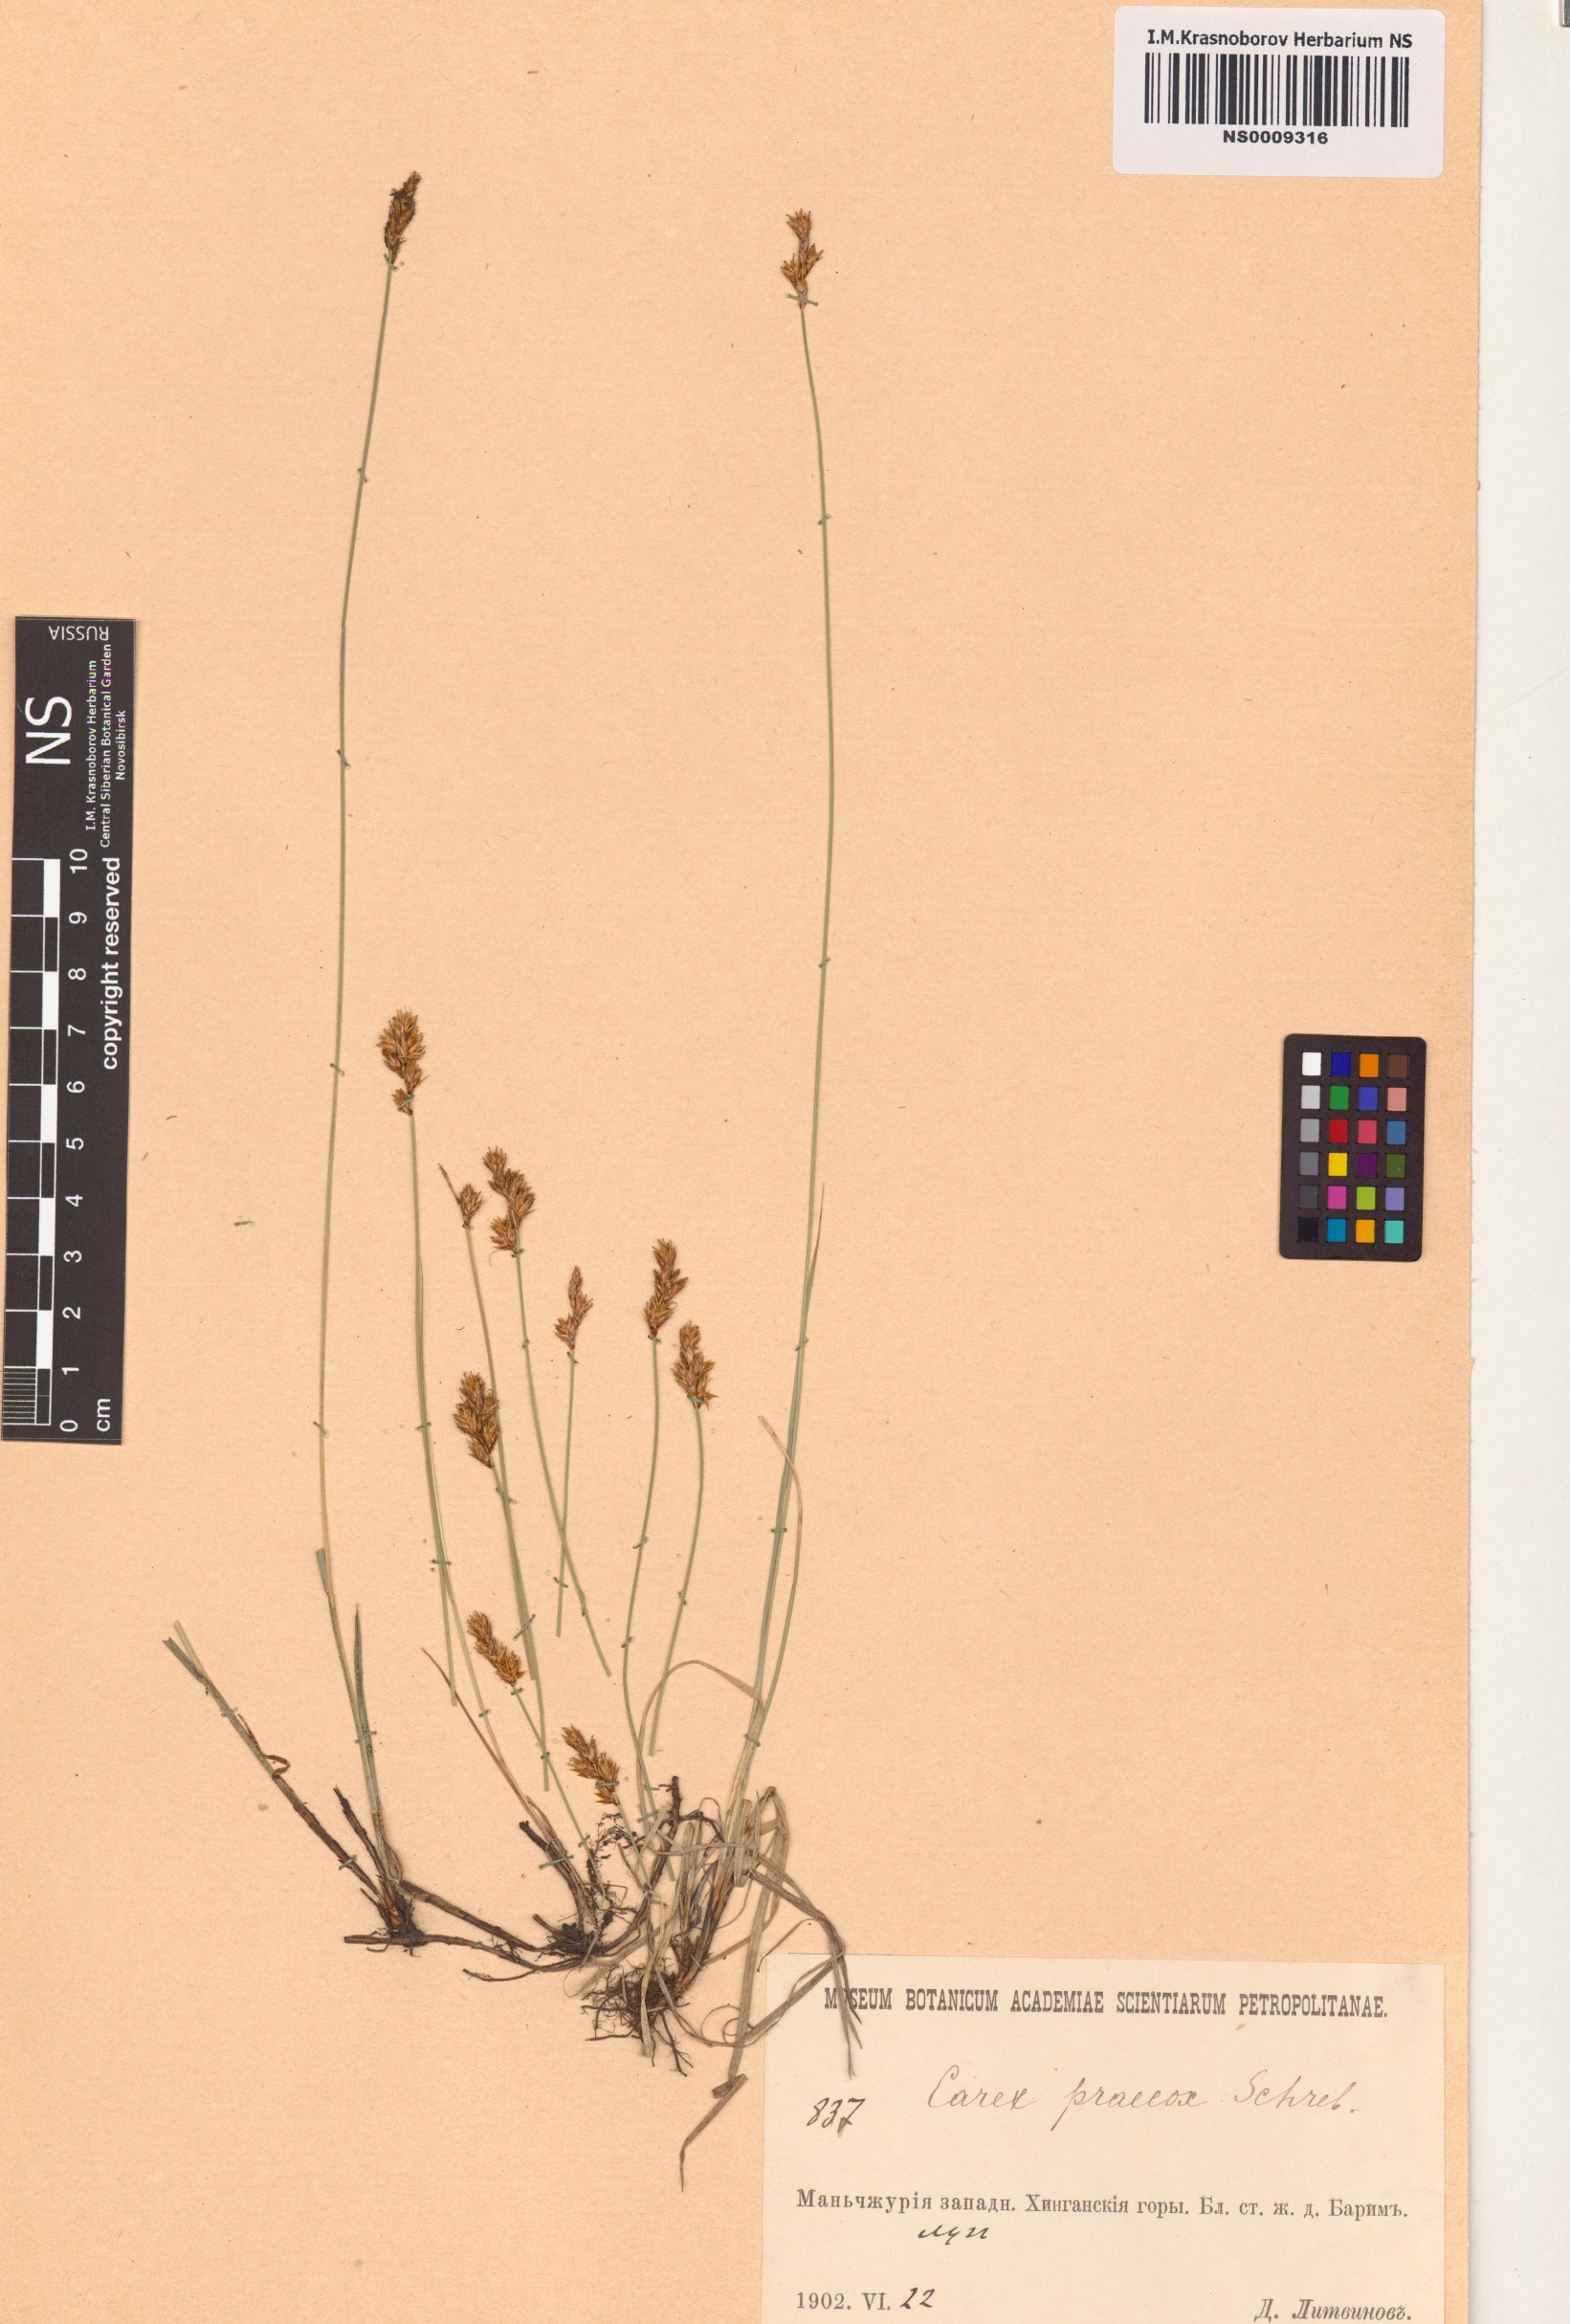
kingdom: Plantae
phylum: Tracheophyta
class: Liliopsida
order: Poales
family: Cyperaceae
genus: Carex
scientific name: Carex praecox
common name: Early sedge
